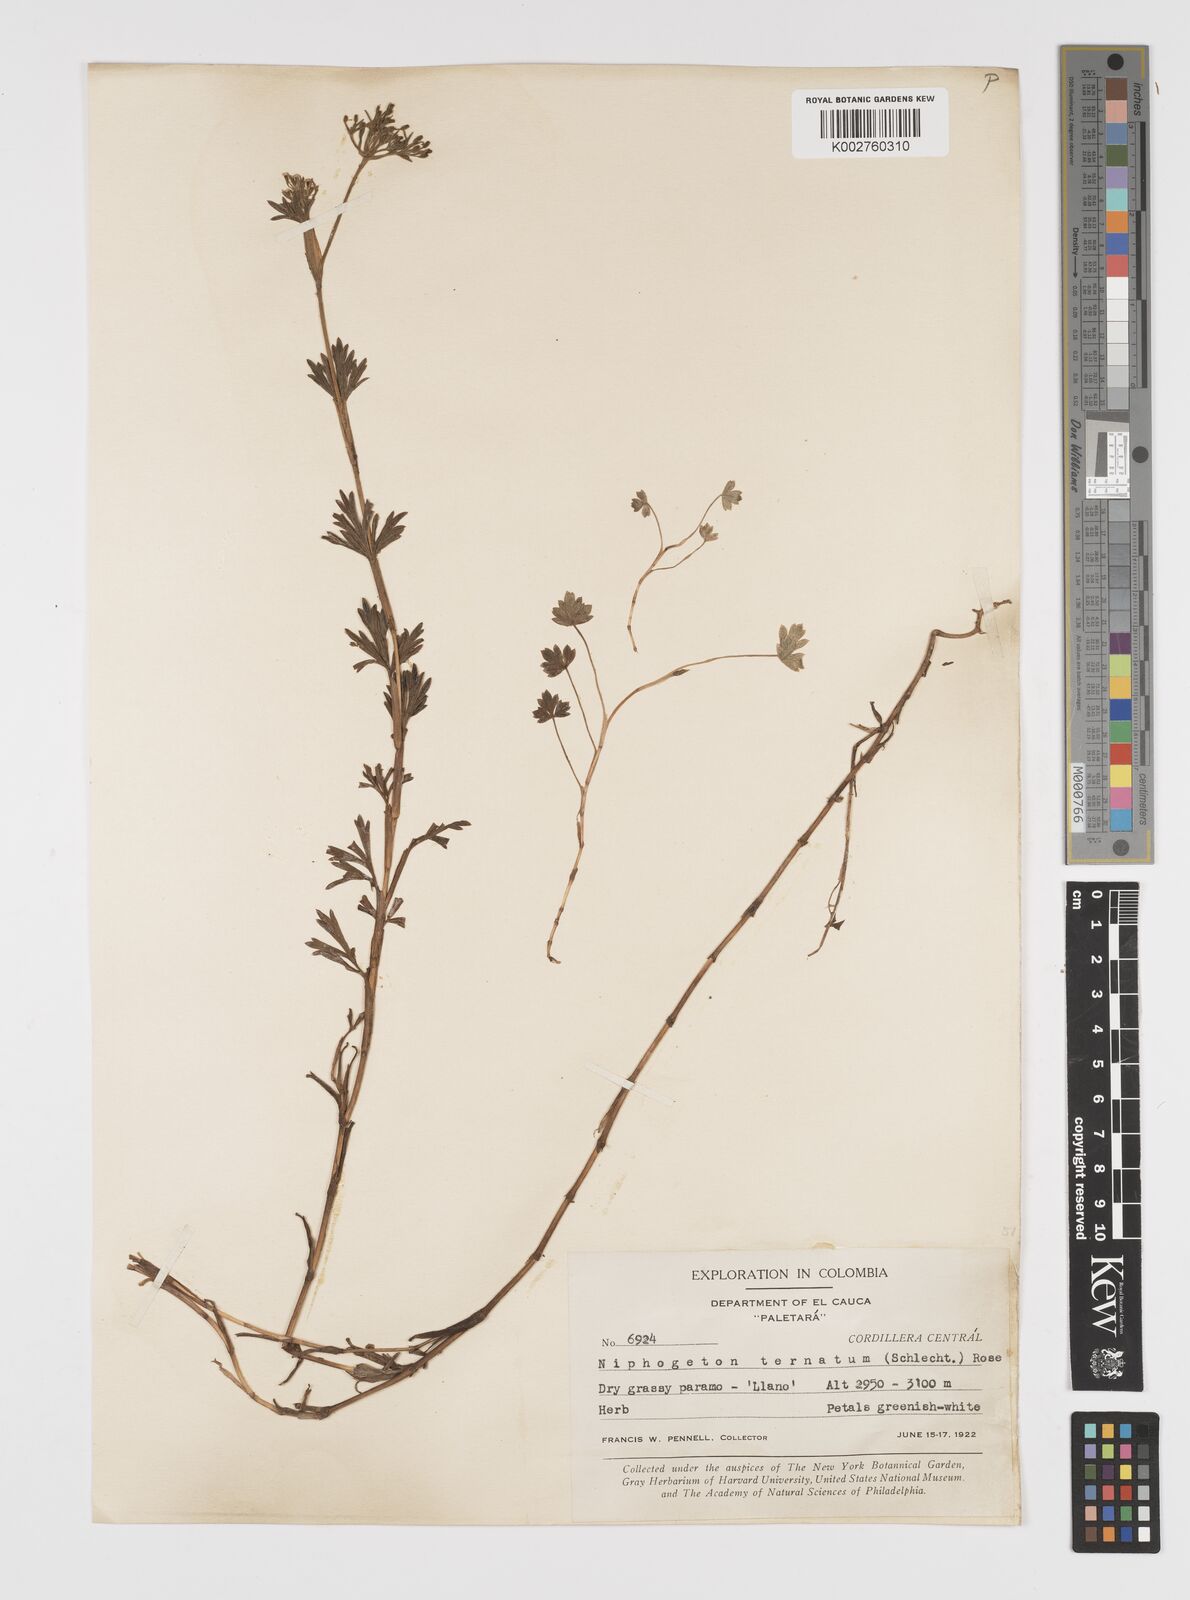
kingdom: Plantae
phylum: Tracheophyta
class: Magnoliopsida
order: Apiales
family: Apiaceae
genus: Niphogeton
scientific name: Niphogeton ternata
